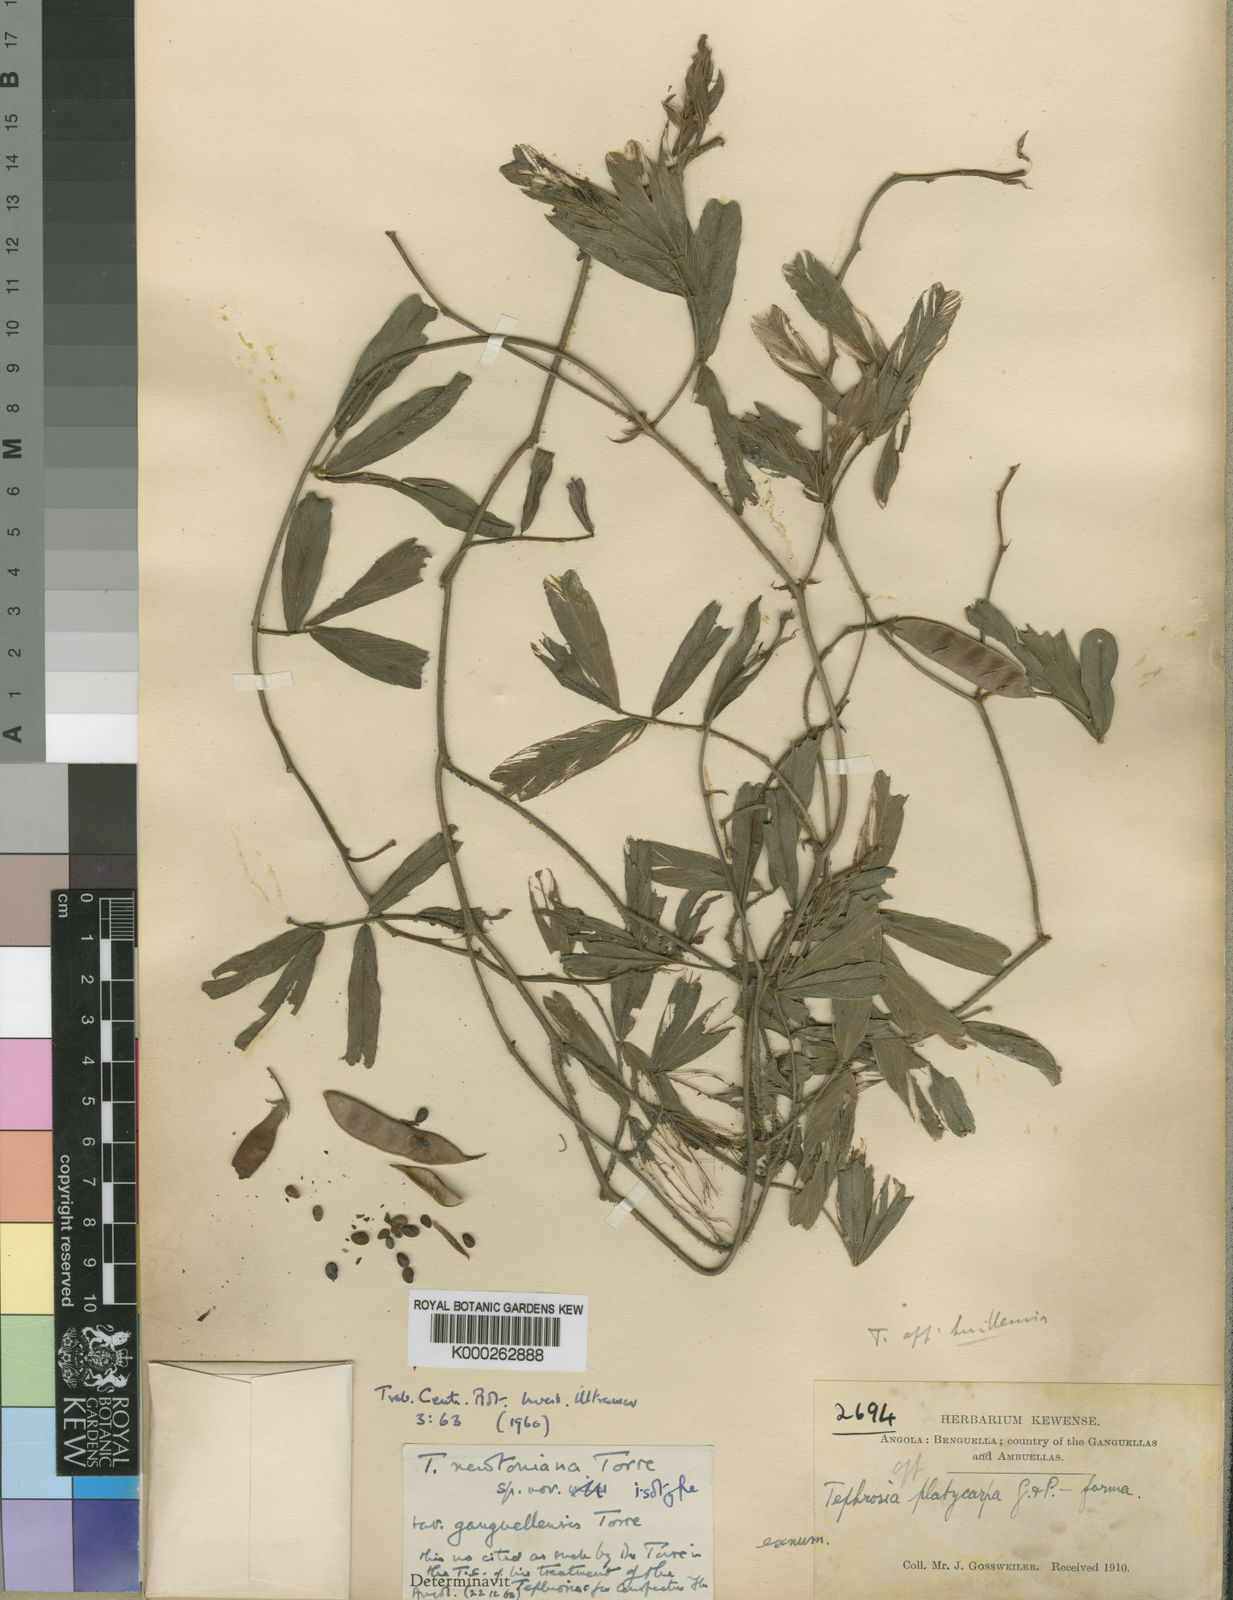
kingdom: Plantae
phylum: Tracheophyta
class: Magnoliopsida
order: Fabales
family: Fabaceae
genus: Tephrosia
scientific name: Tephrosia newtoniana
